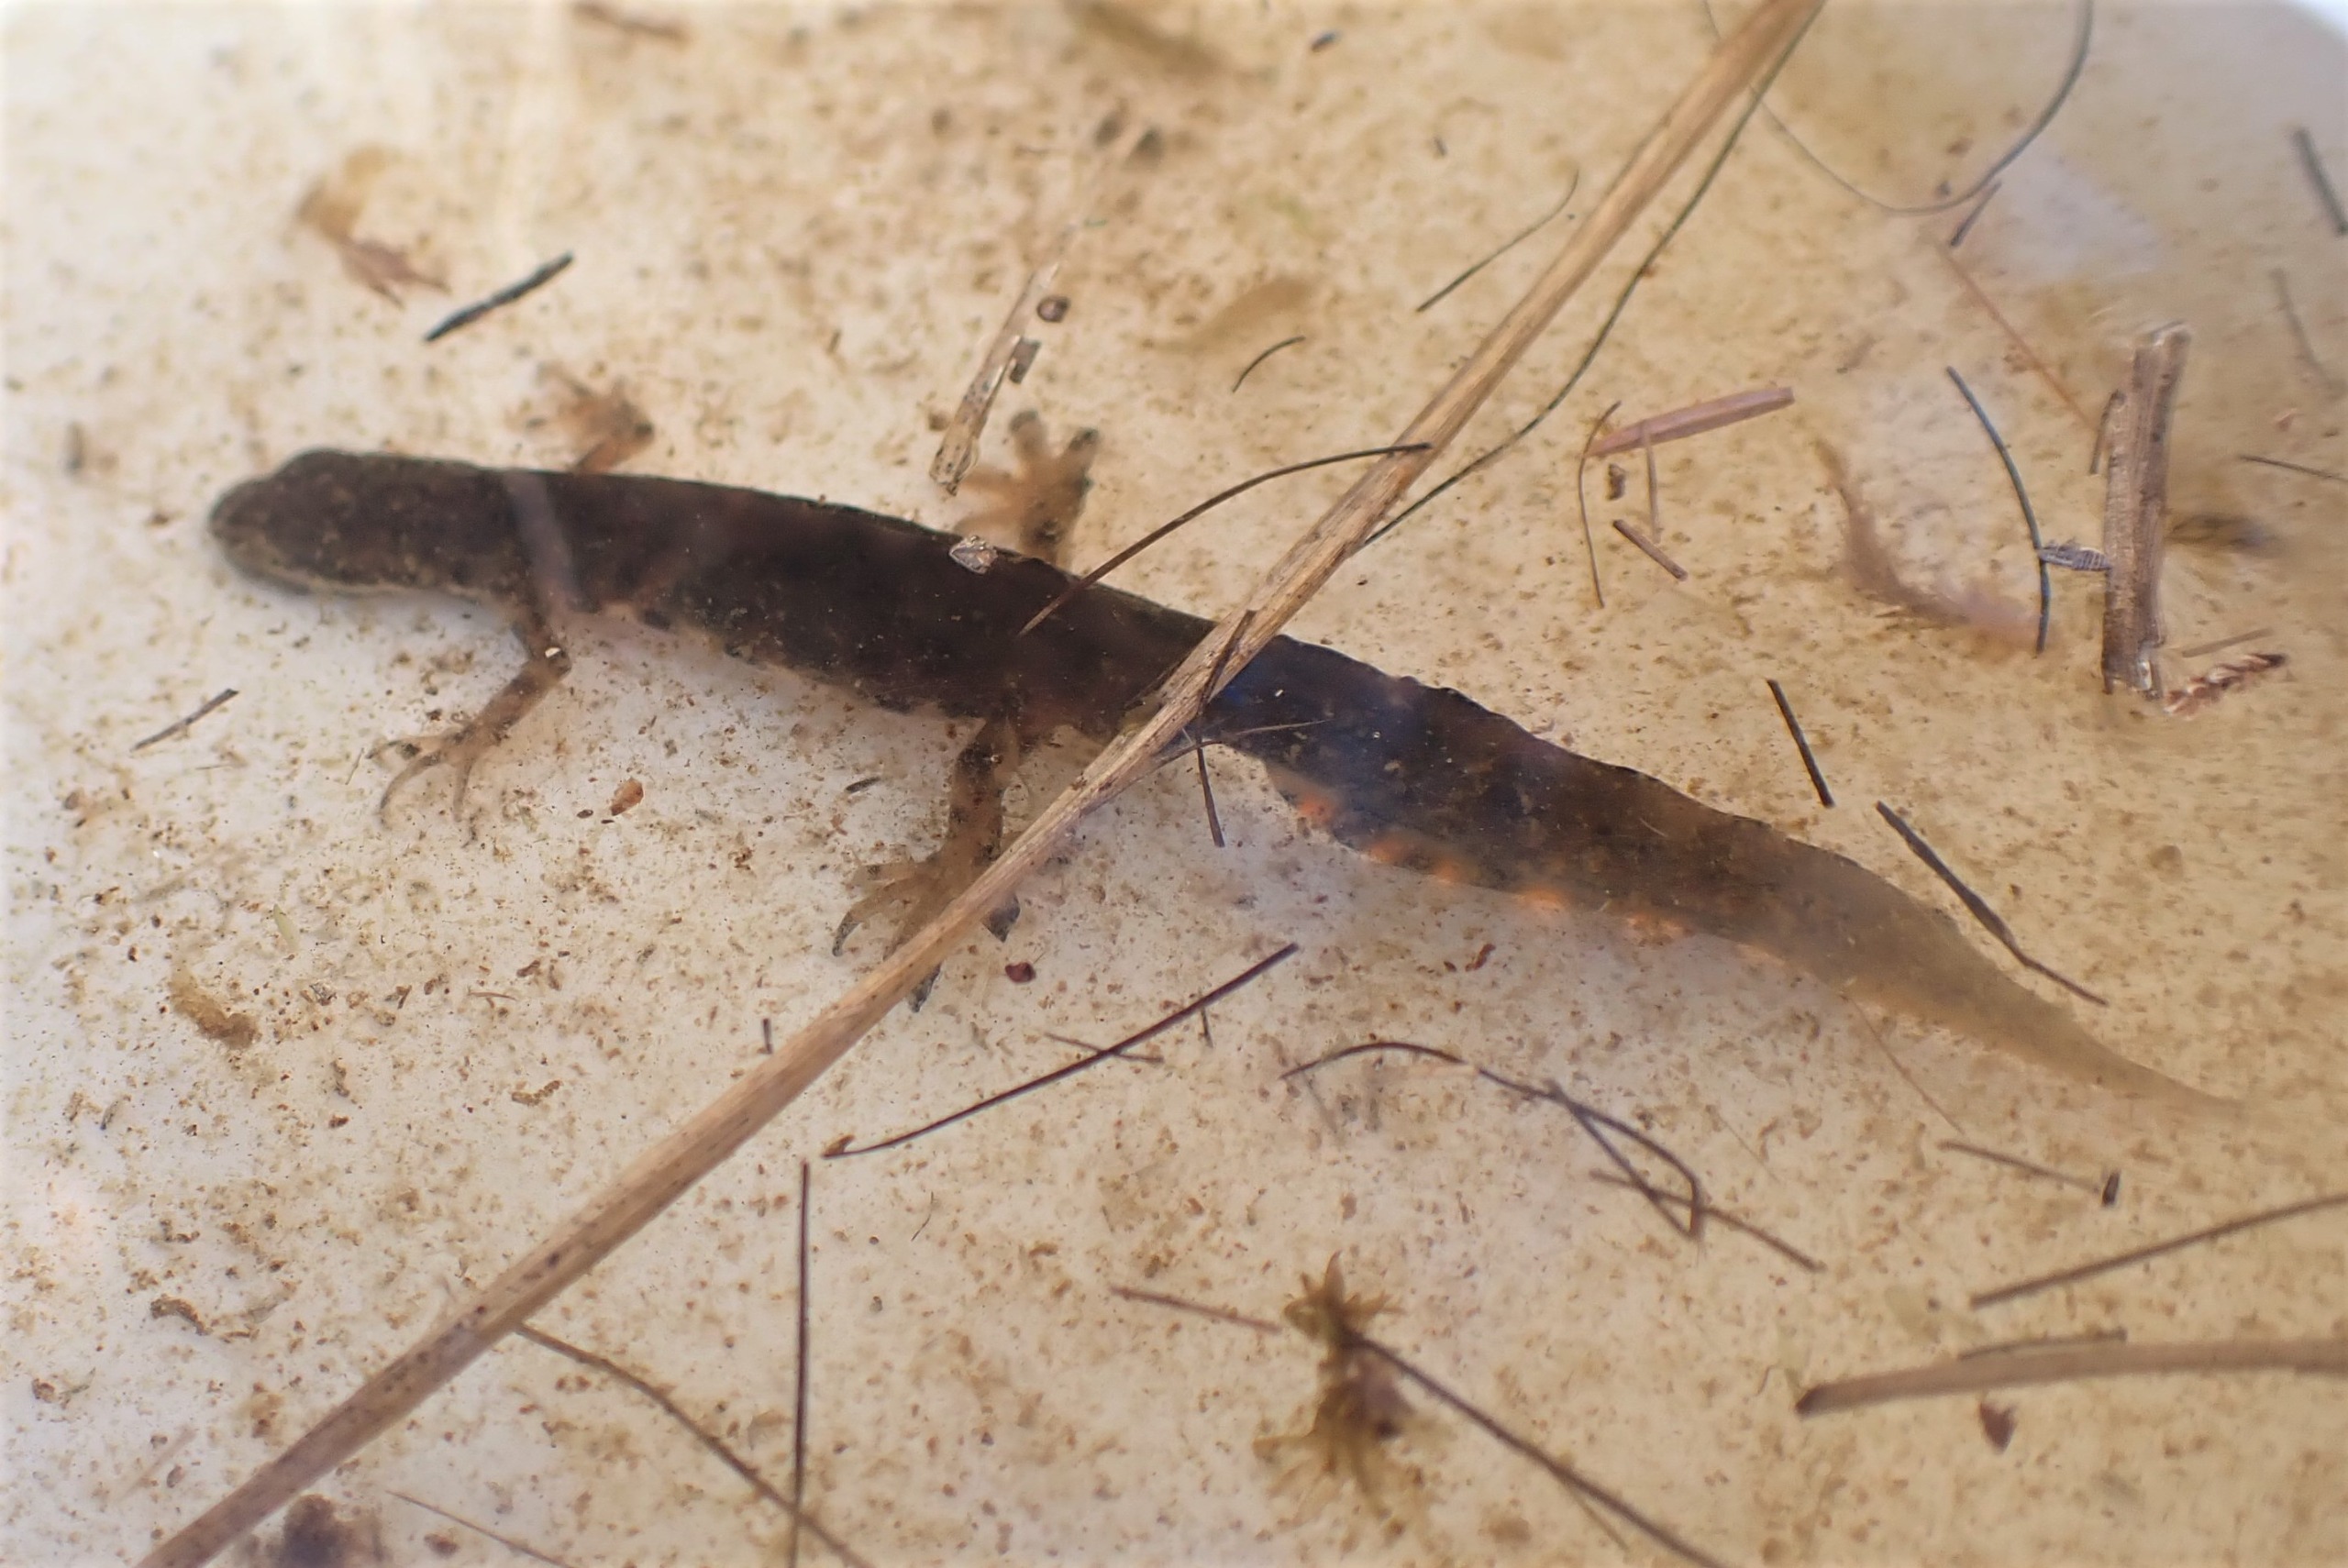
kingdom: Animalia
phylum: Chordata
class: Amphibia
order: Caudata
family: Salamandridae
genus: Lissotriton
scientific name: Lissotriton vulgaris
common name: Lille vandsalamander
